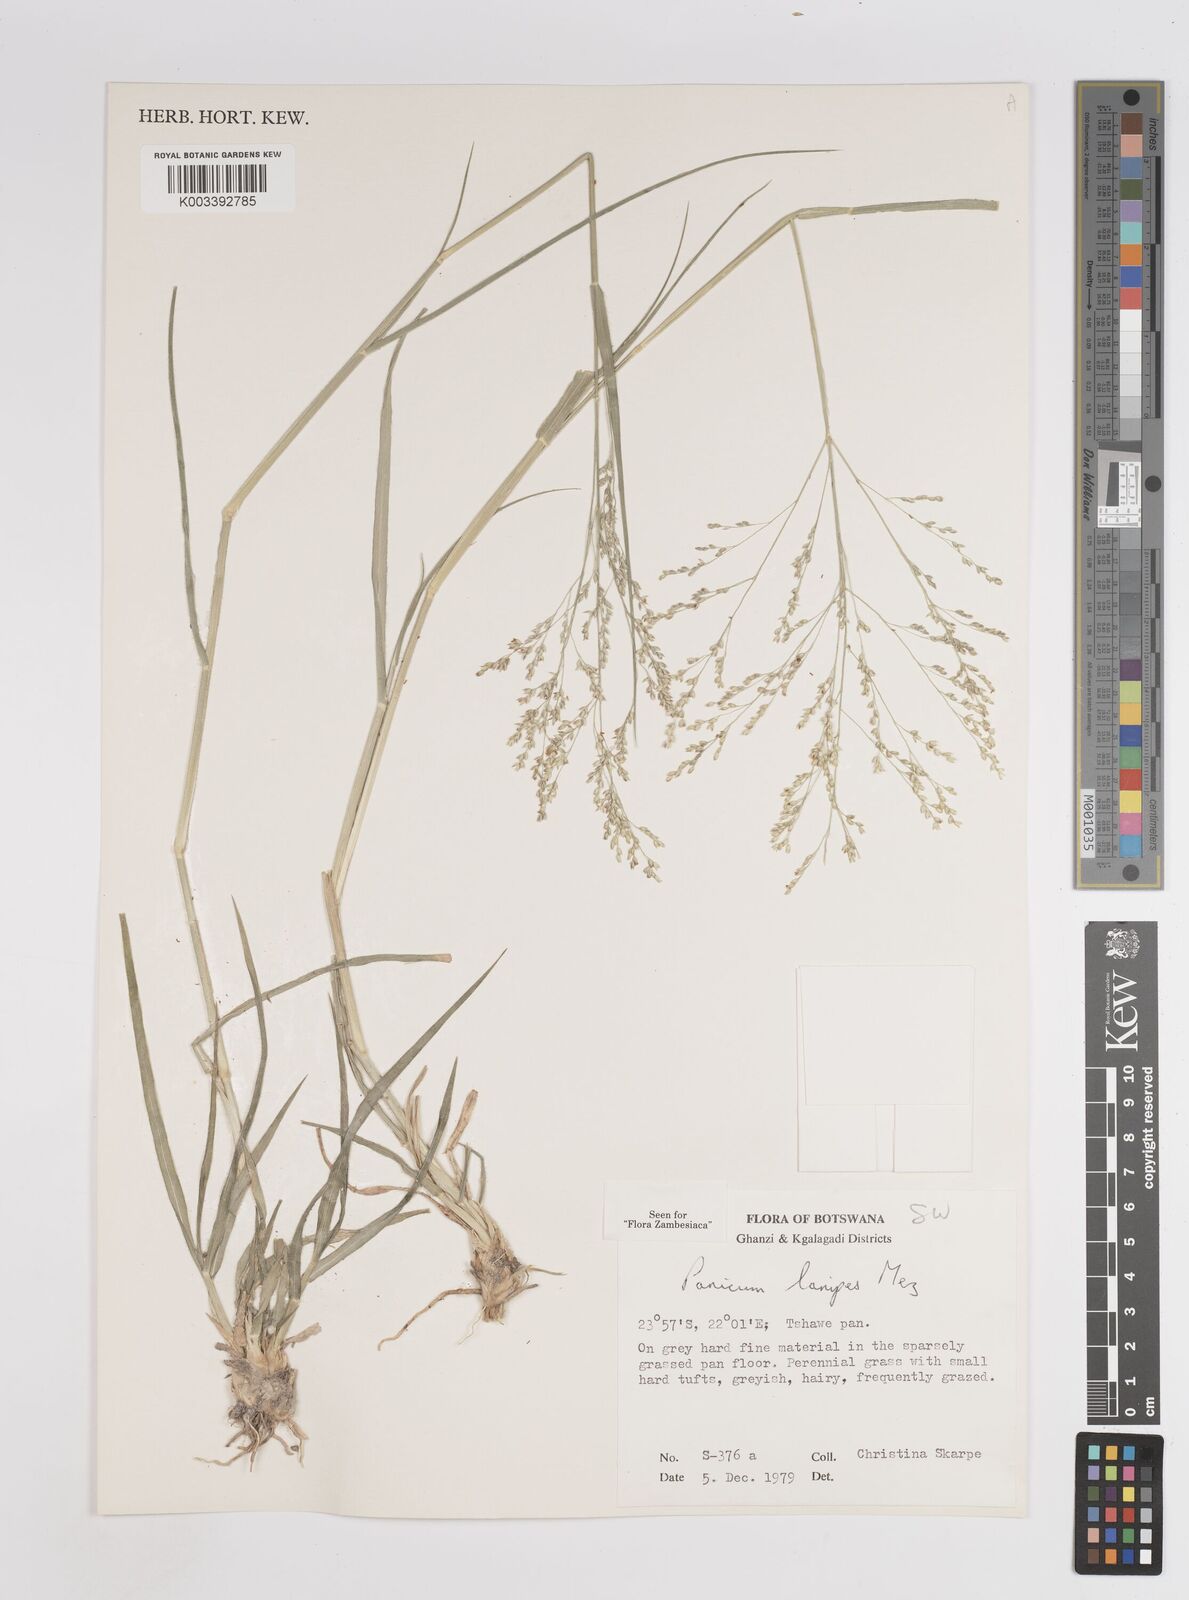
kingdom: Plantae
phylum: Tracheophyta
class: Liliopsida
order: Poales
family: Poaceae
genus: Panicum
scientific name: Panicum lanipes
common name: Wolvoet panicum
